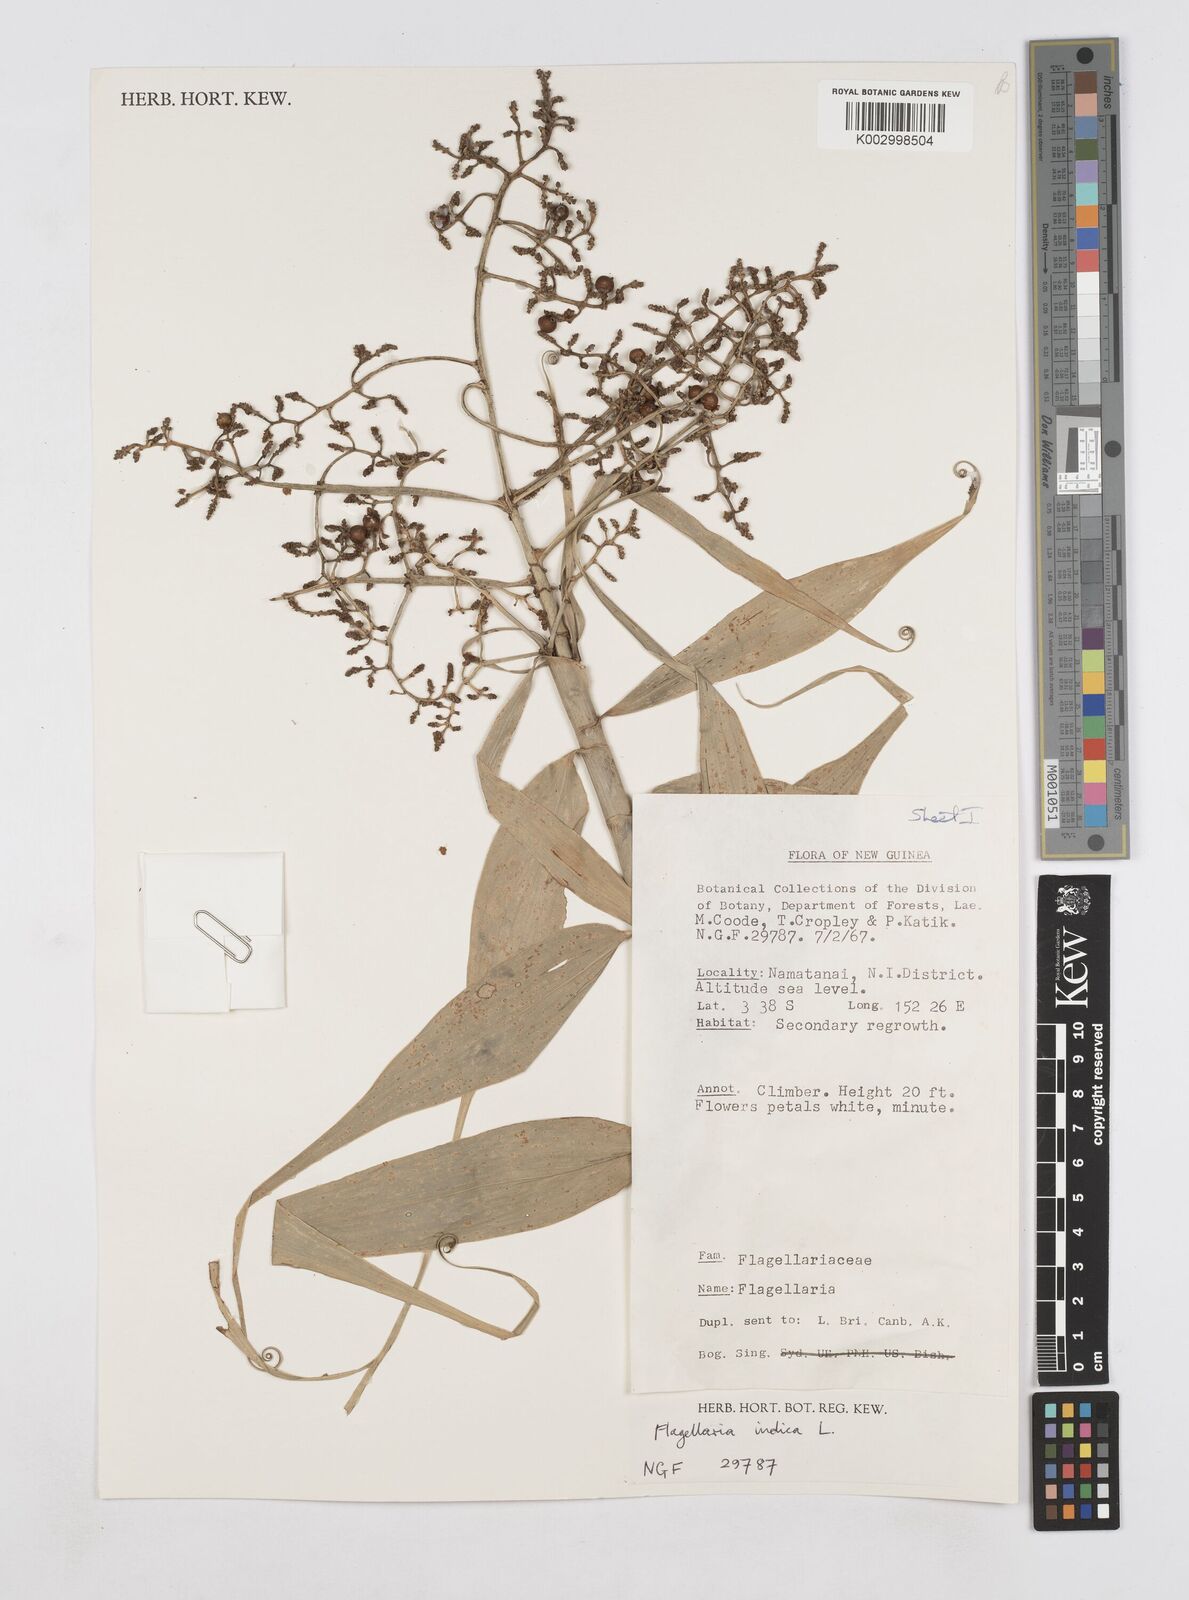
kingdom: Plantae
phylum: Tracheophyta
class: Liliopsida
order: Poales
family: Flagellariaceae
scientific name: Flagellariaceae
